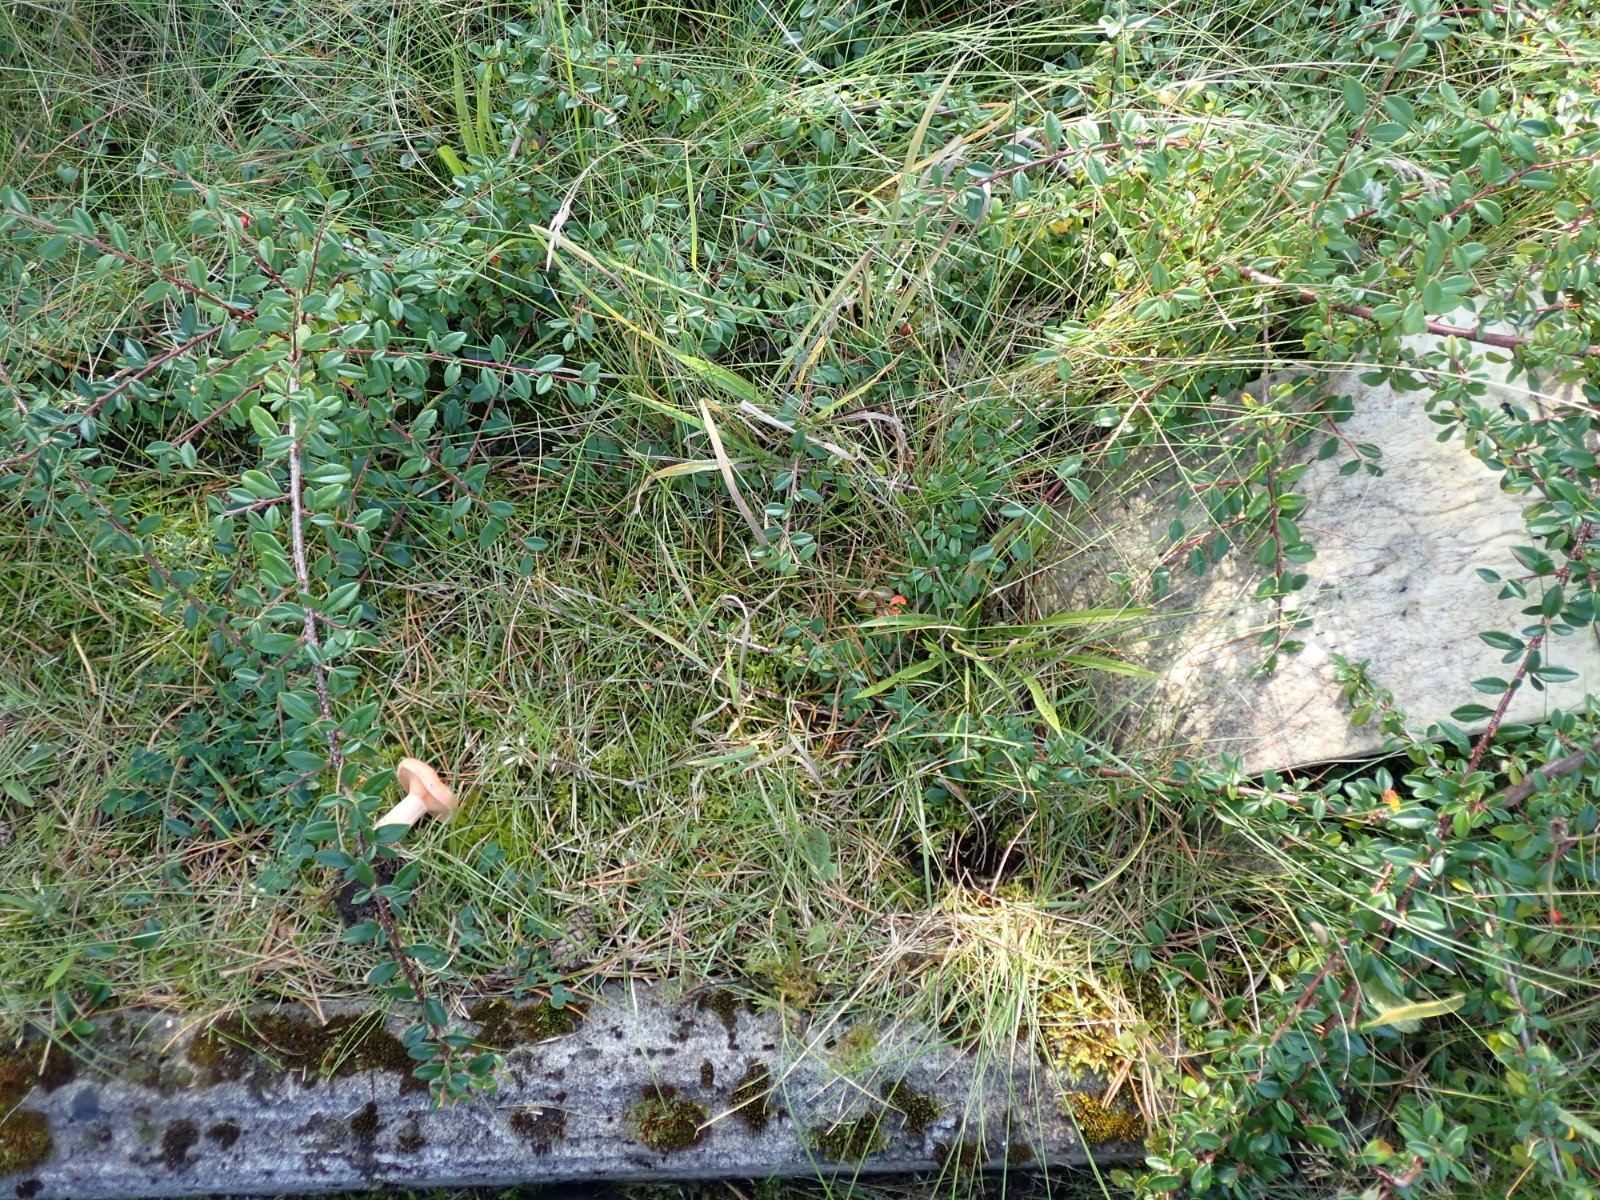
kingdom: Fungi
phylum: Basidiomycota
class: Agaricomycetes
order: Russulales
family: Russulaceae
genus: Lactarius
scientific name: Lactarius deliciosus
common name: velsmagende mælkehat
